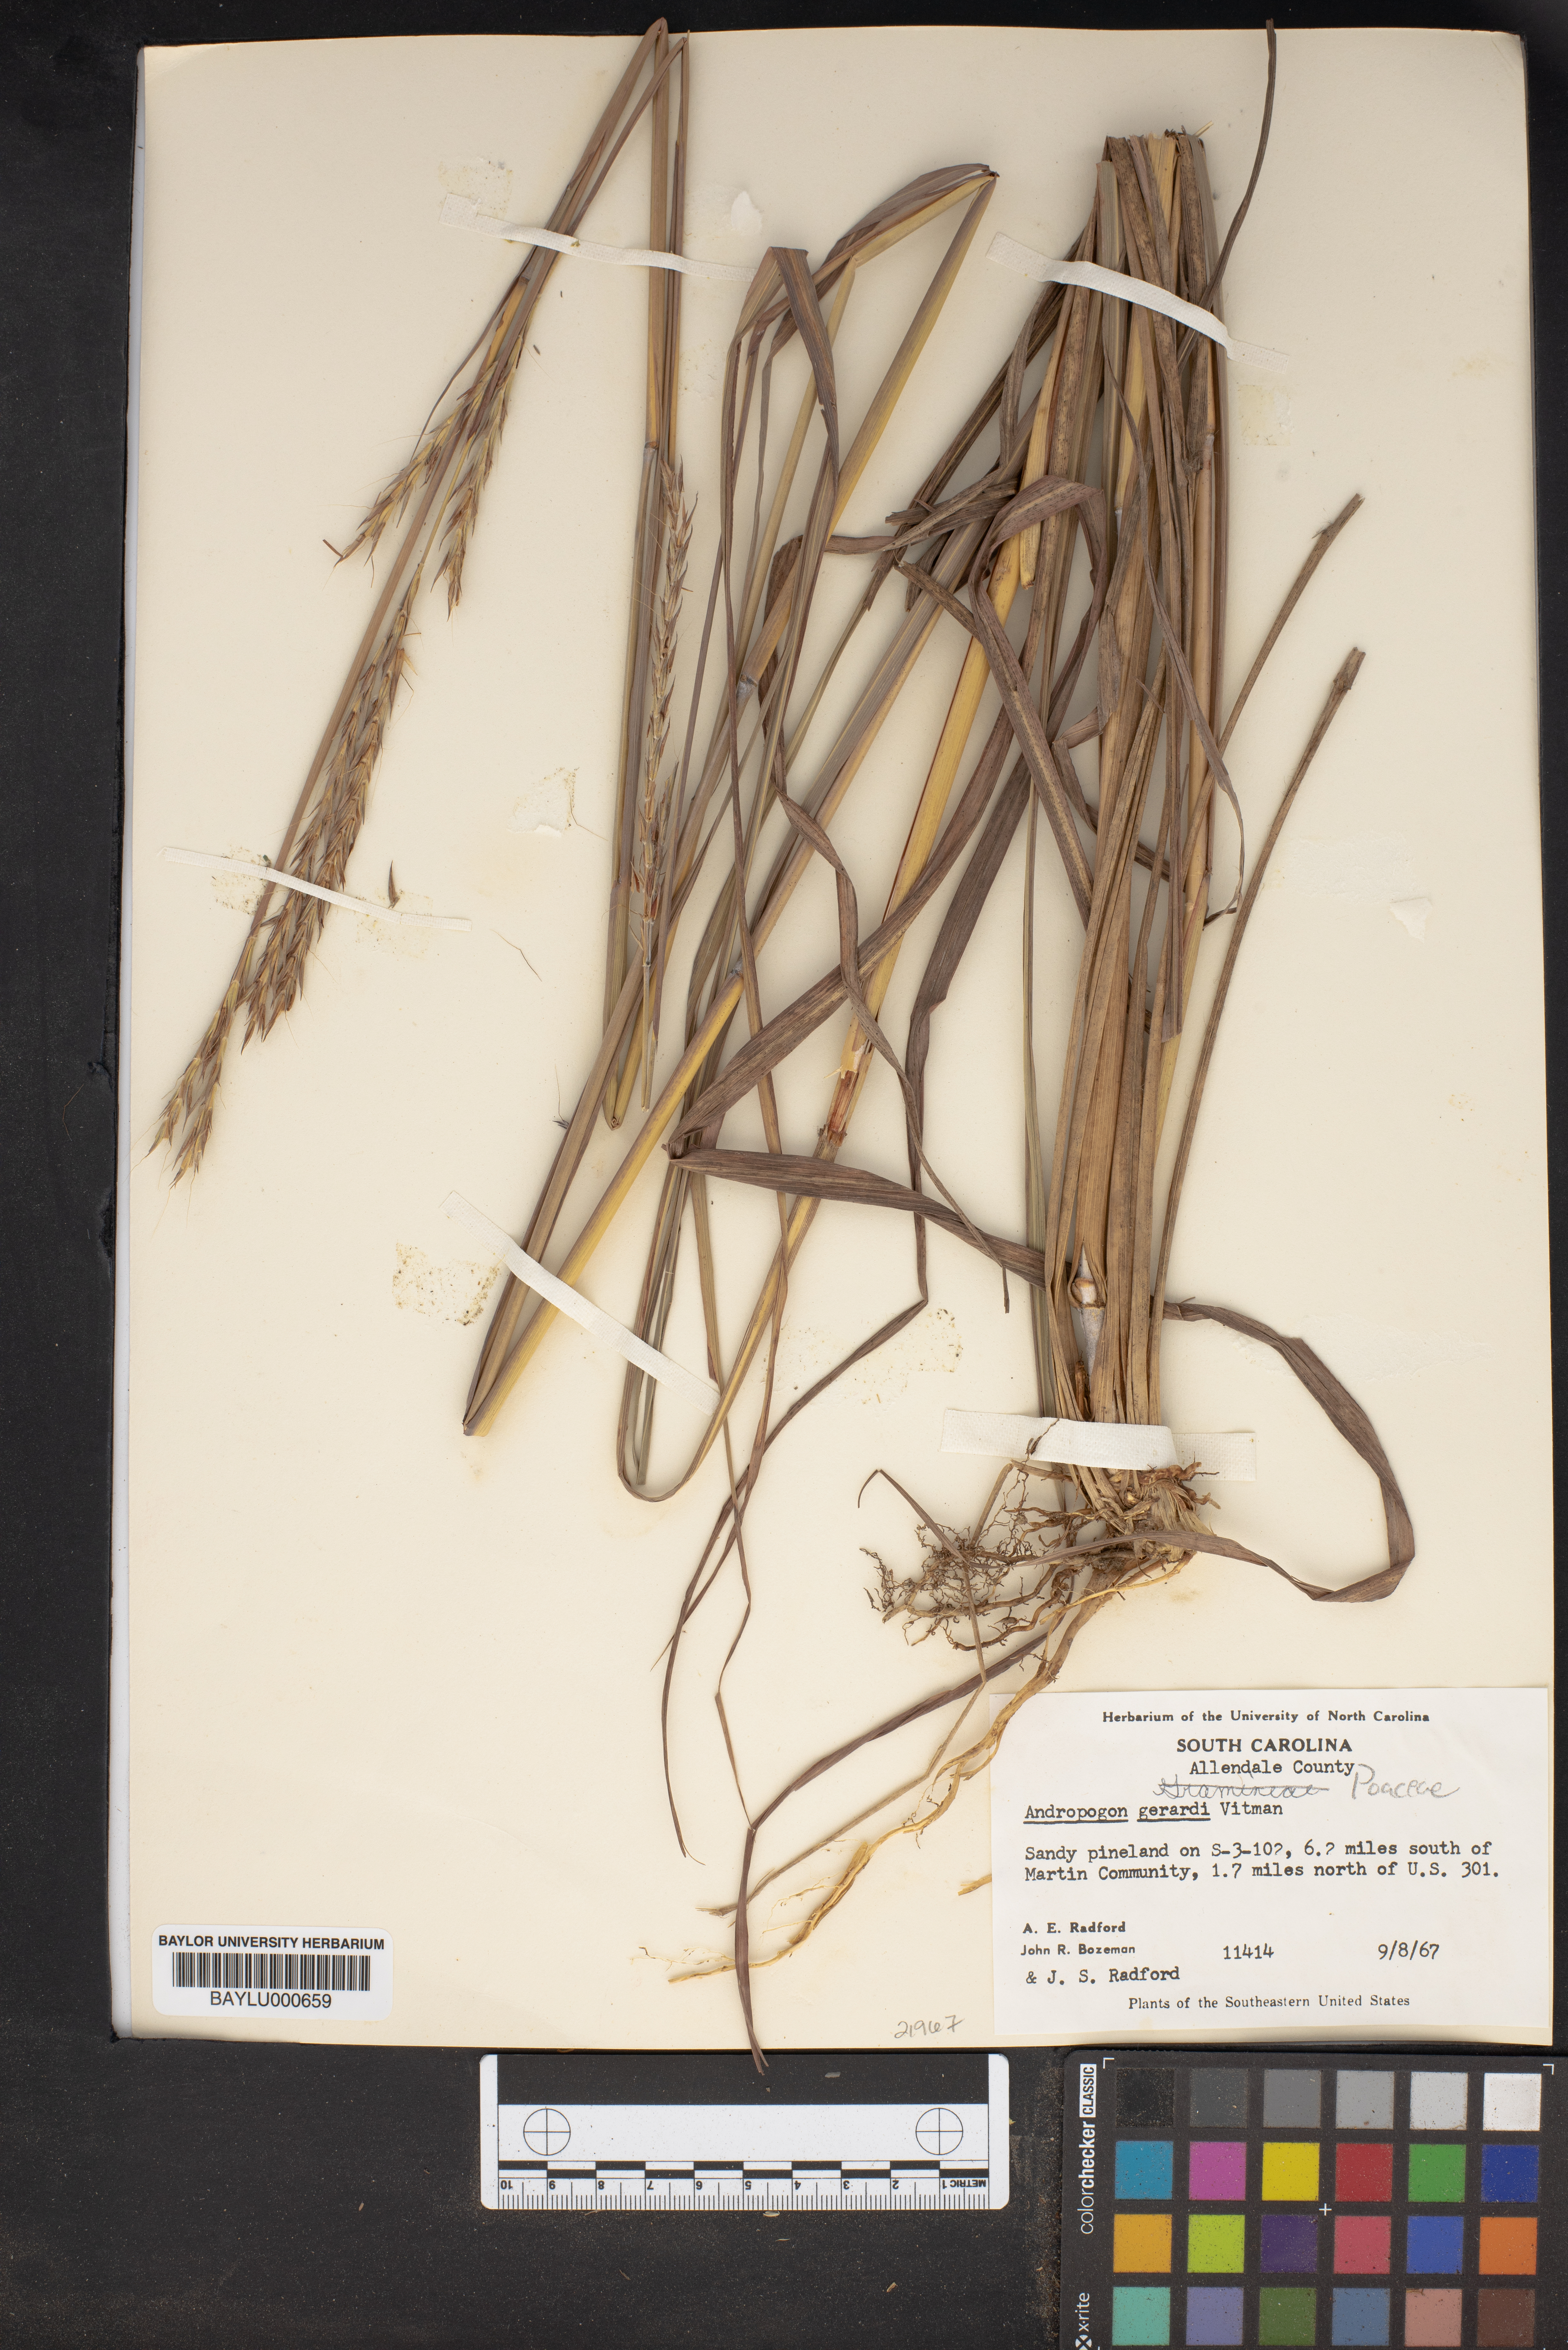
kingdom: Plantae
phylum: Tracheophyta
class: Liliopsida
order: Poales
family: Poaceae
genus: Andropogon
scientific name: Andropogon gerardi
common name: Big bluestem
